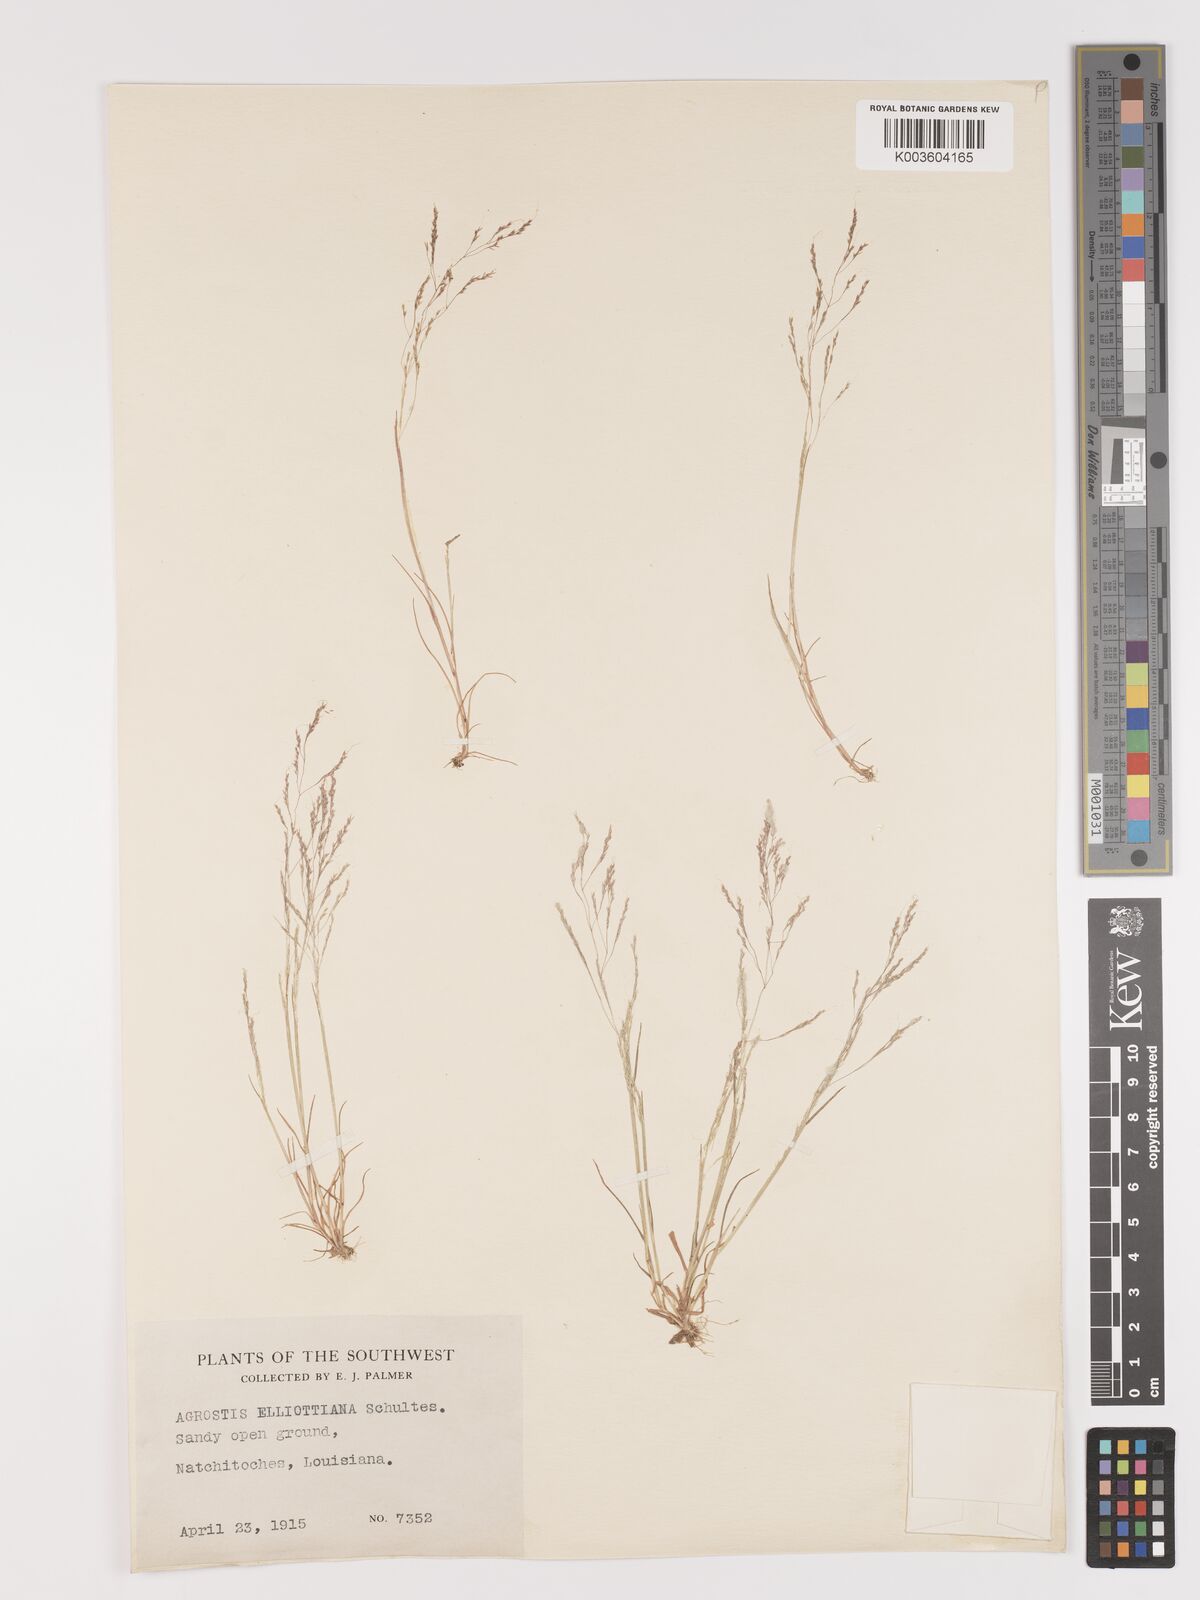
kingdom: Plantae
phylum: Tracheophyta
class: Liliopsida
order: Poales
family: Poaceae
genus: Agrostis
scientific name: Agrostis elliottiana
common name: Elliott's bent
